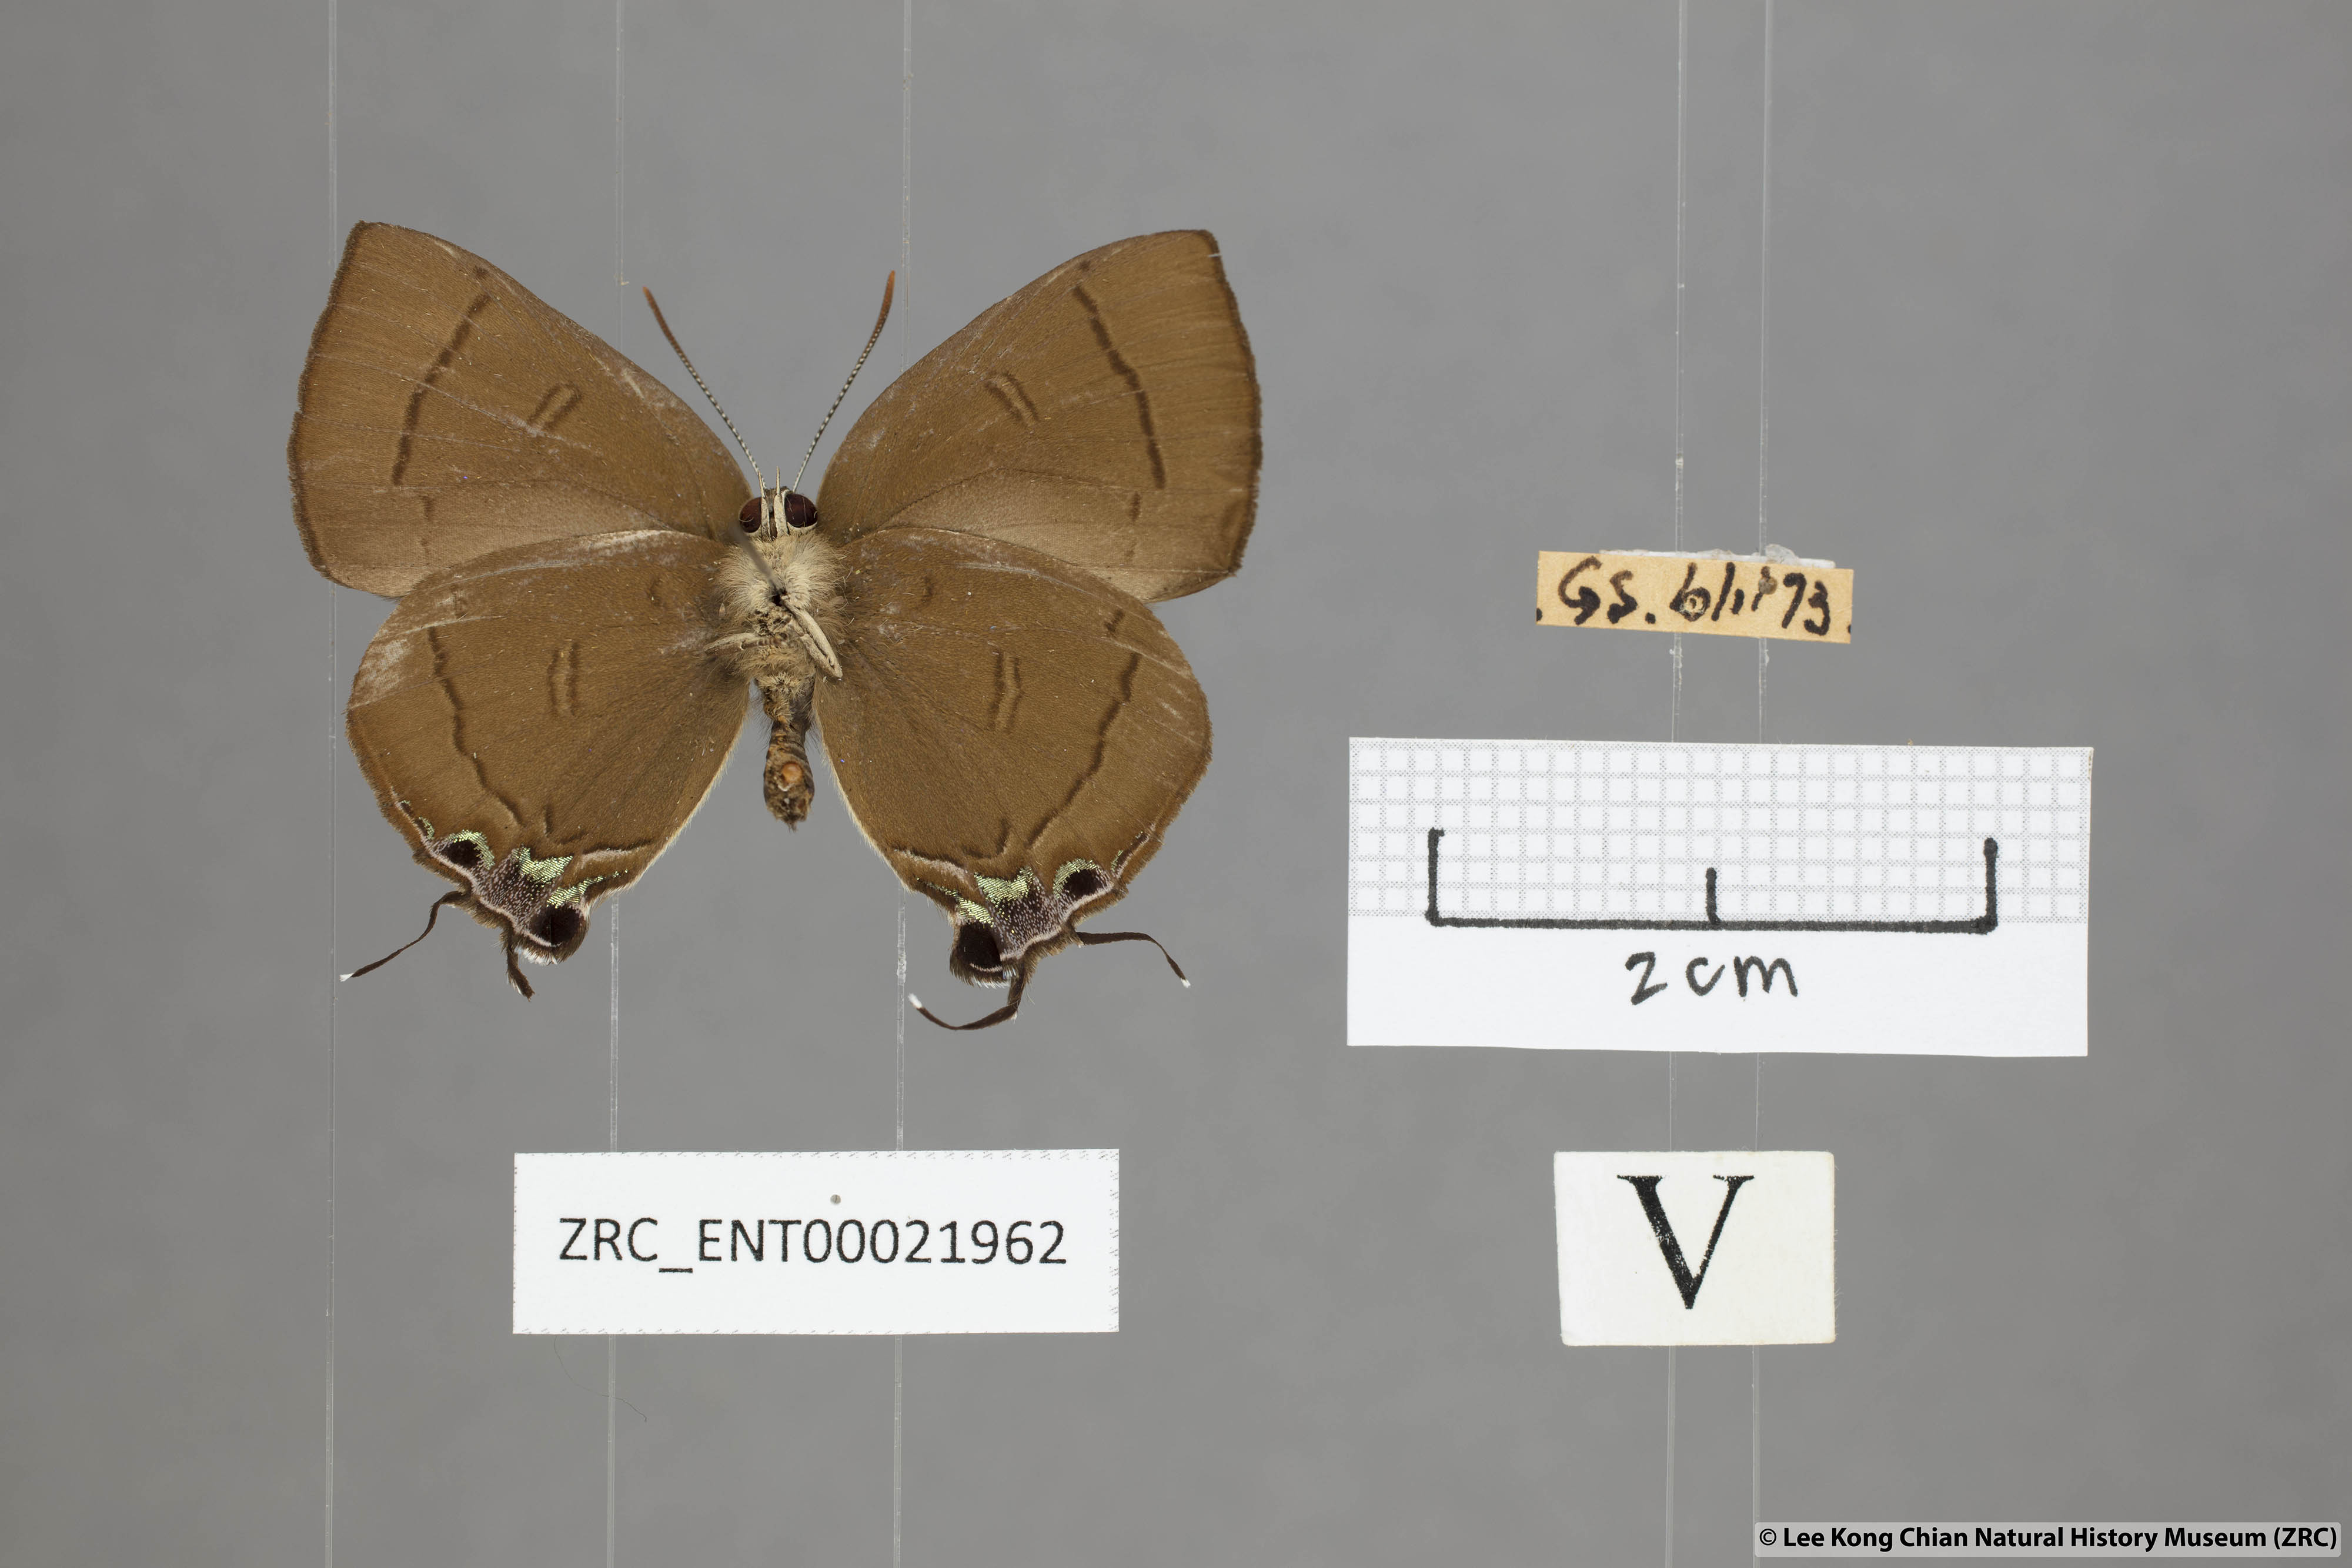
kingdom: Animalia
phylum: Arthropoda
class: Insecta
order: Lepidoptera
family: Lycaenidae
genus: Remelana
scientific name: Remelana jangala
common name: Chocolate royal
